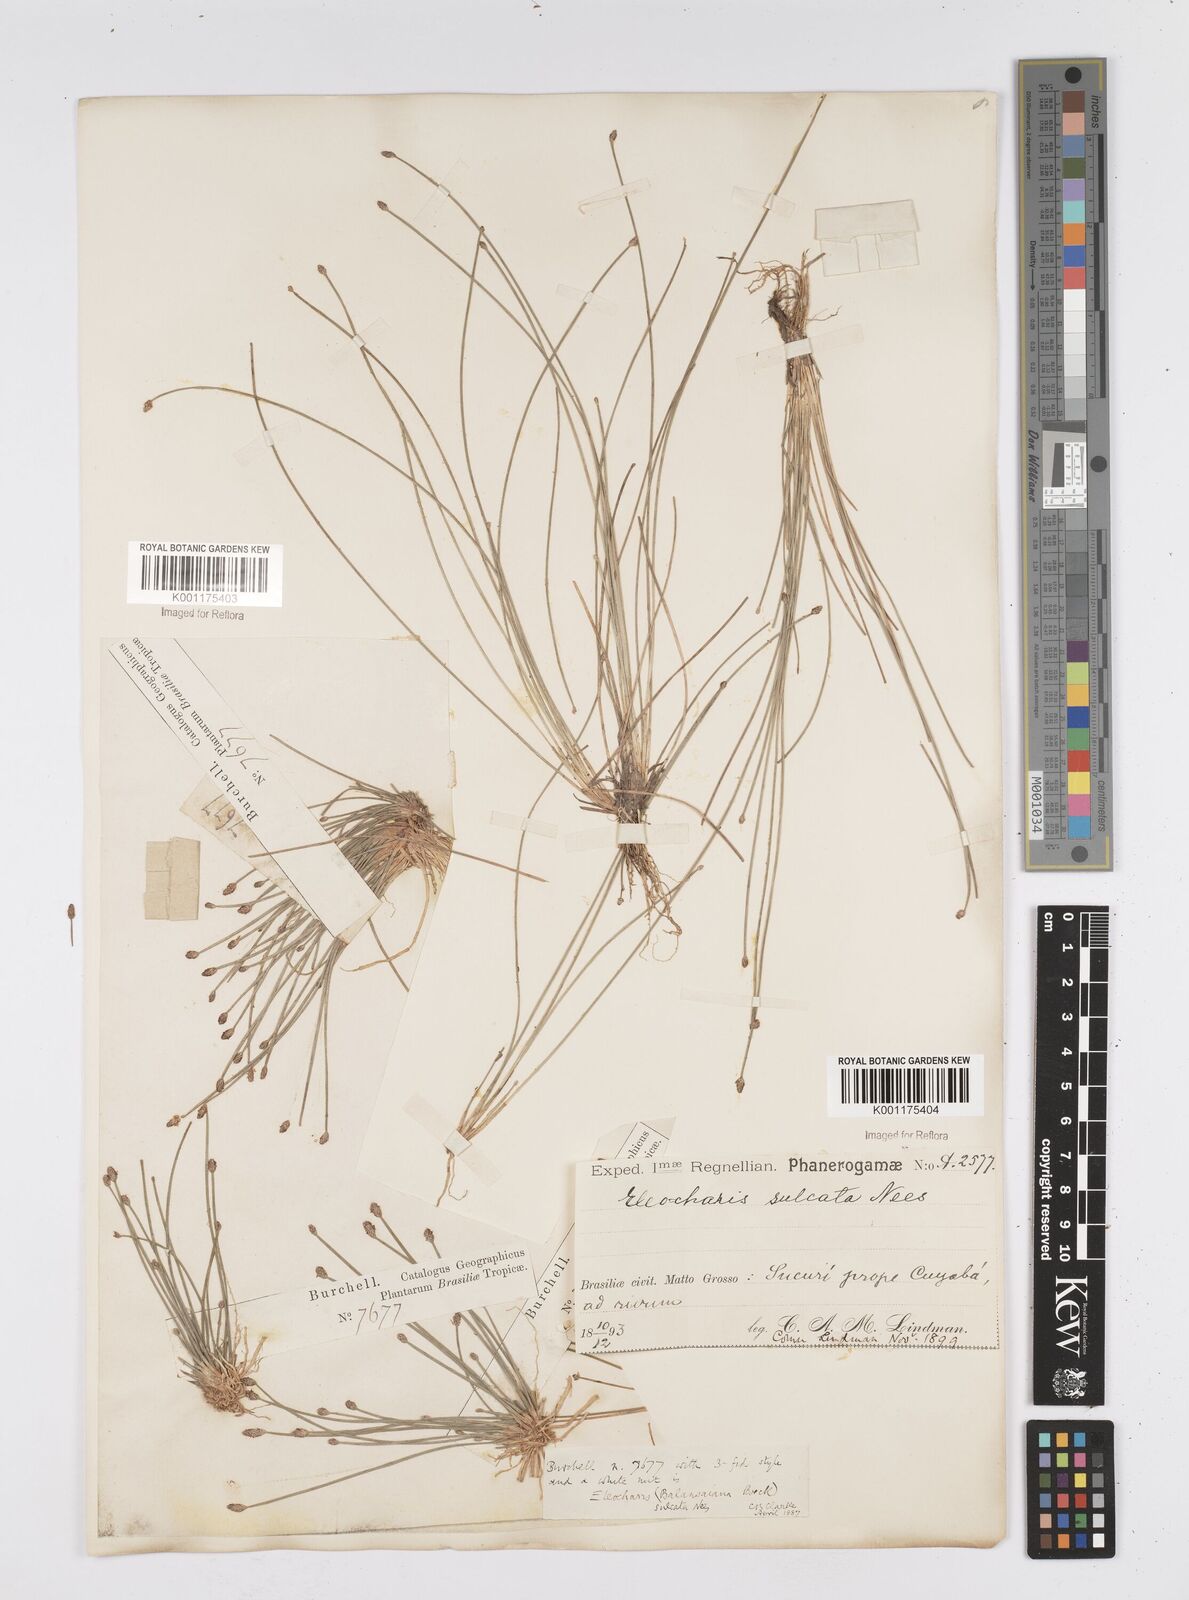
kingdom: Plantae
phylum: Tracheophyta
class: Liliopsida
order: Poales
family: Cyperaceae
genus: Eleocharis
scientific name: Eleocharis filiculmis
